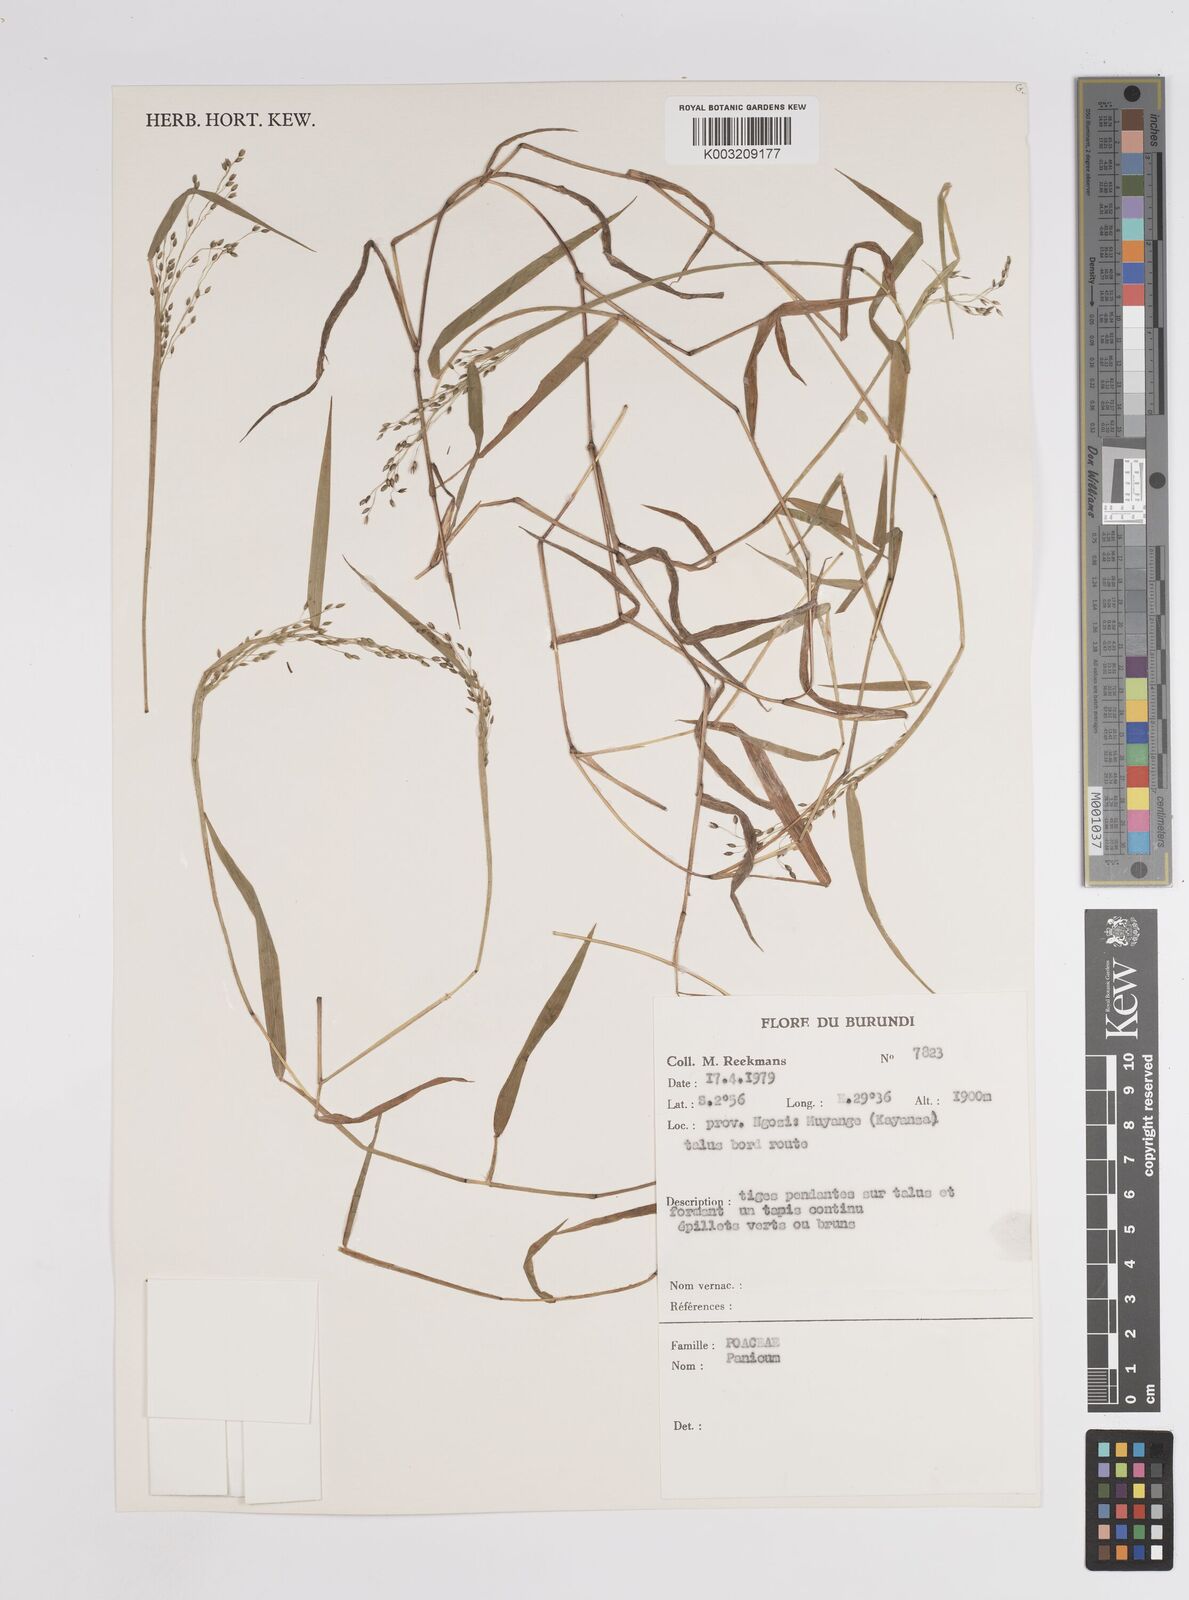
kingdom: Plantae
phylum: Tracheophyta
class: Liliopsida
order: Poales
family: Poaceae
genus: Panicum
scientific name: Panicum
